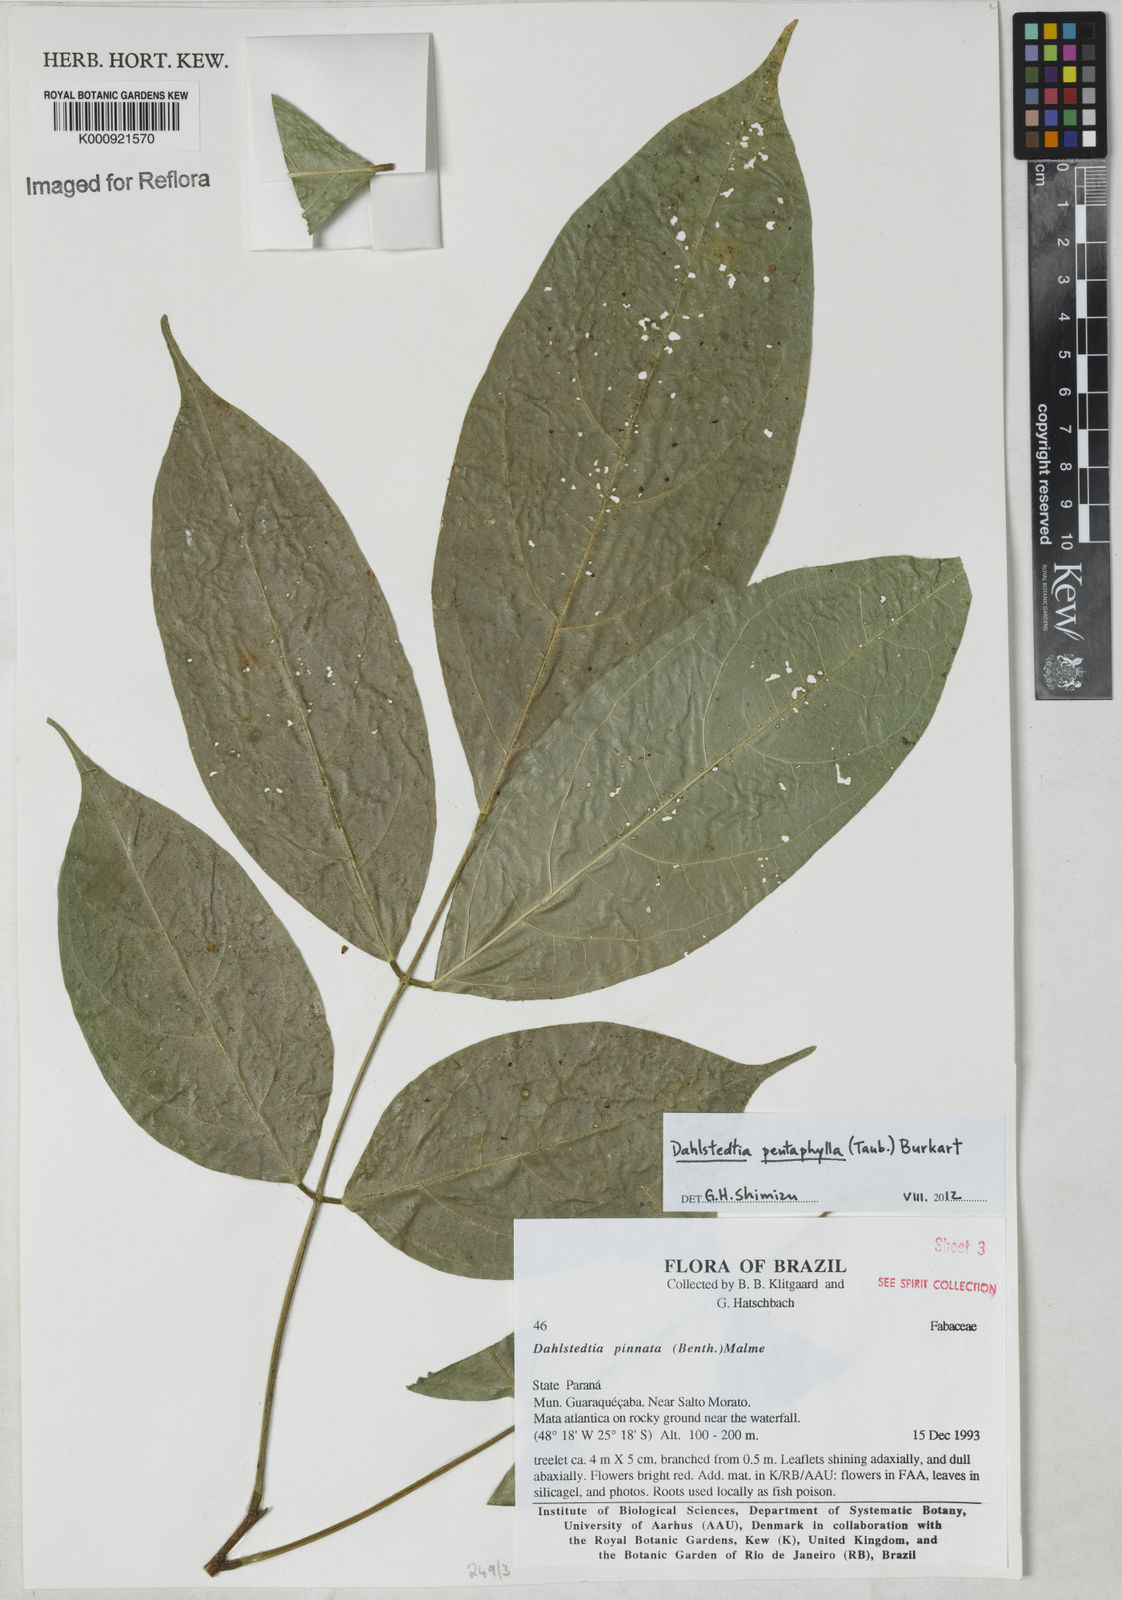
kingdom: Plantae
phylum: Tracheophyta
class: Magnoliopsida
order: Fabales
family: Fabaceae
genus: Dahlstedtia
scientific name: Dahlstedtia pentaphylla
